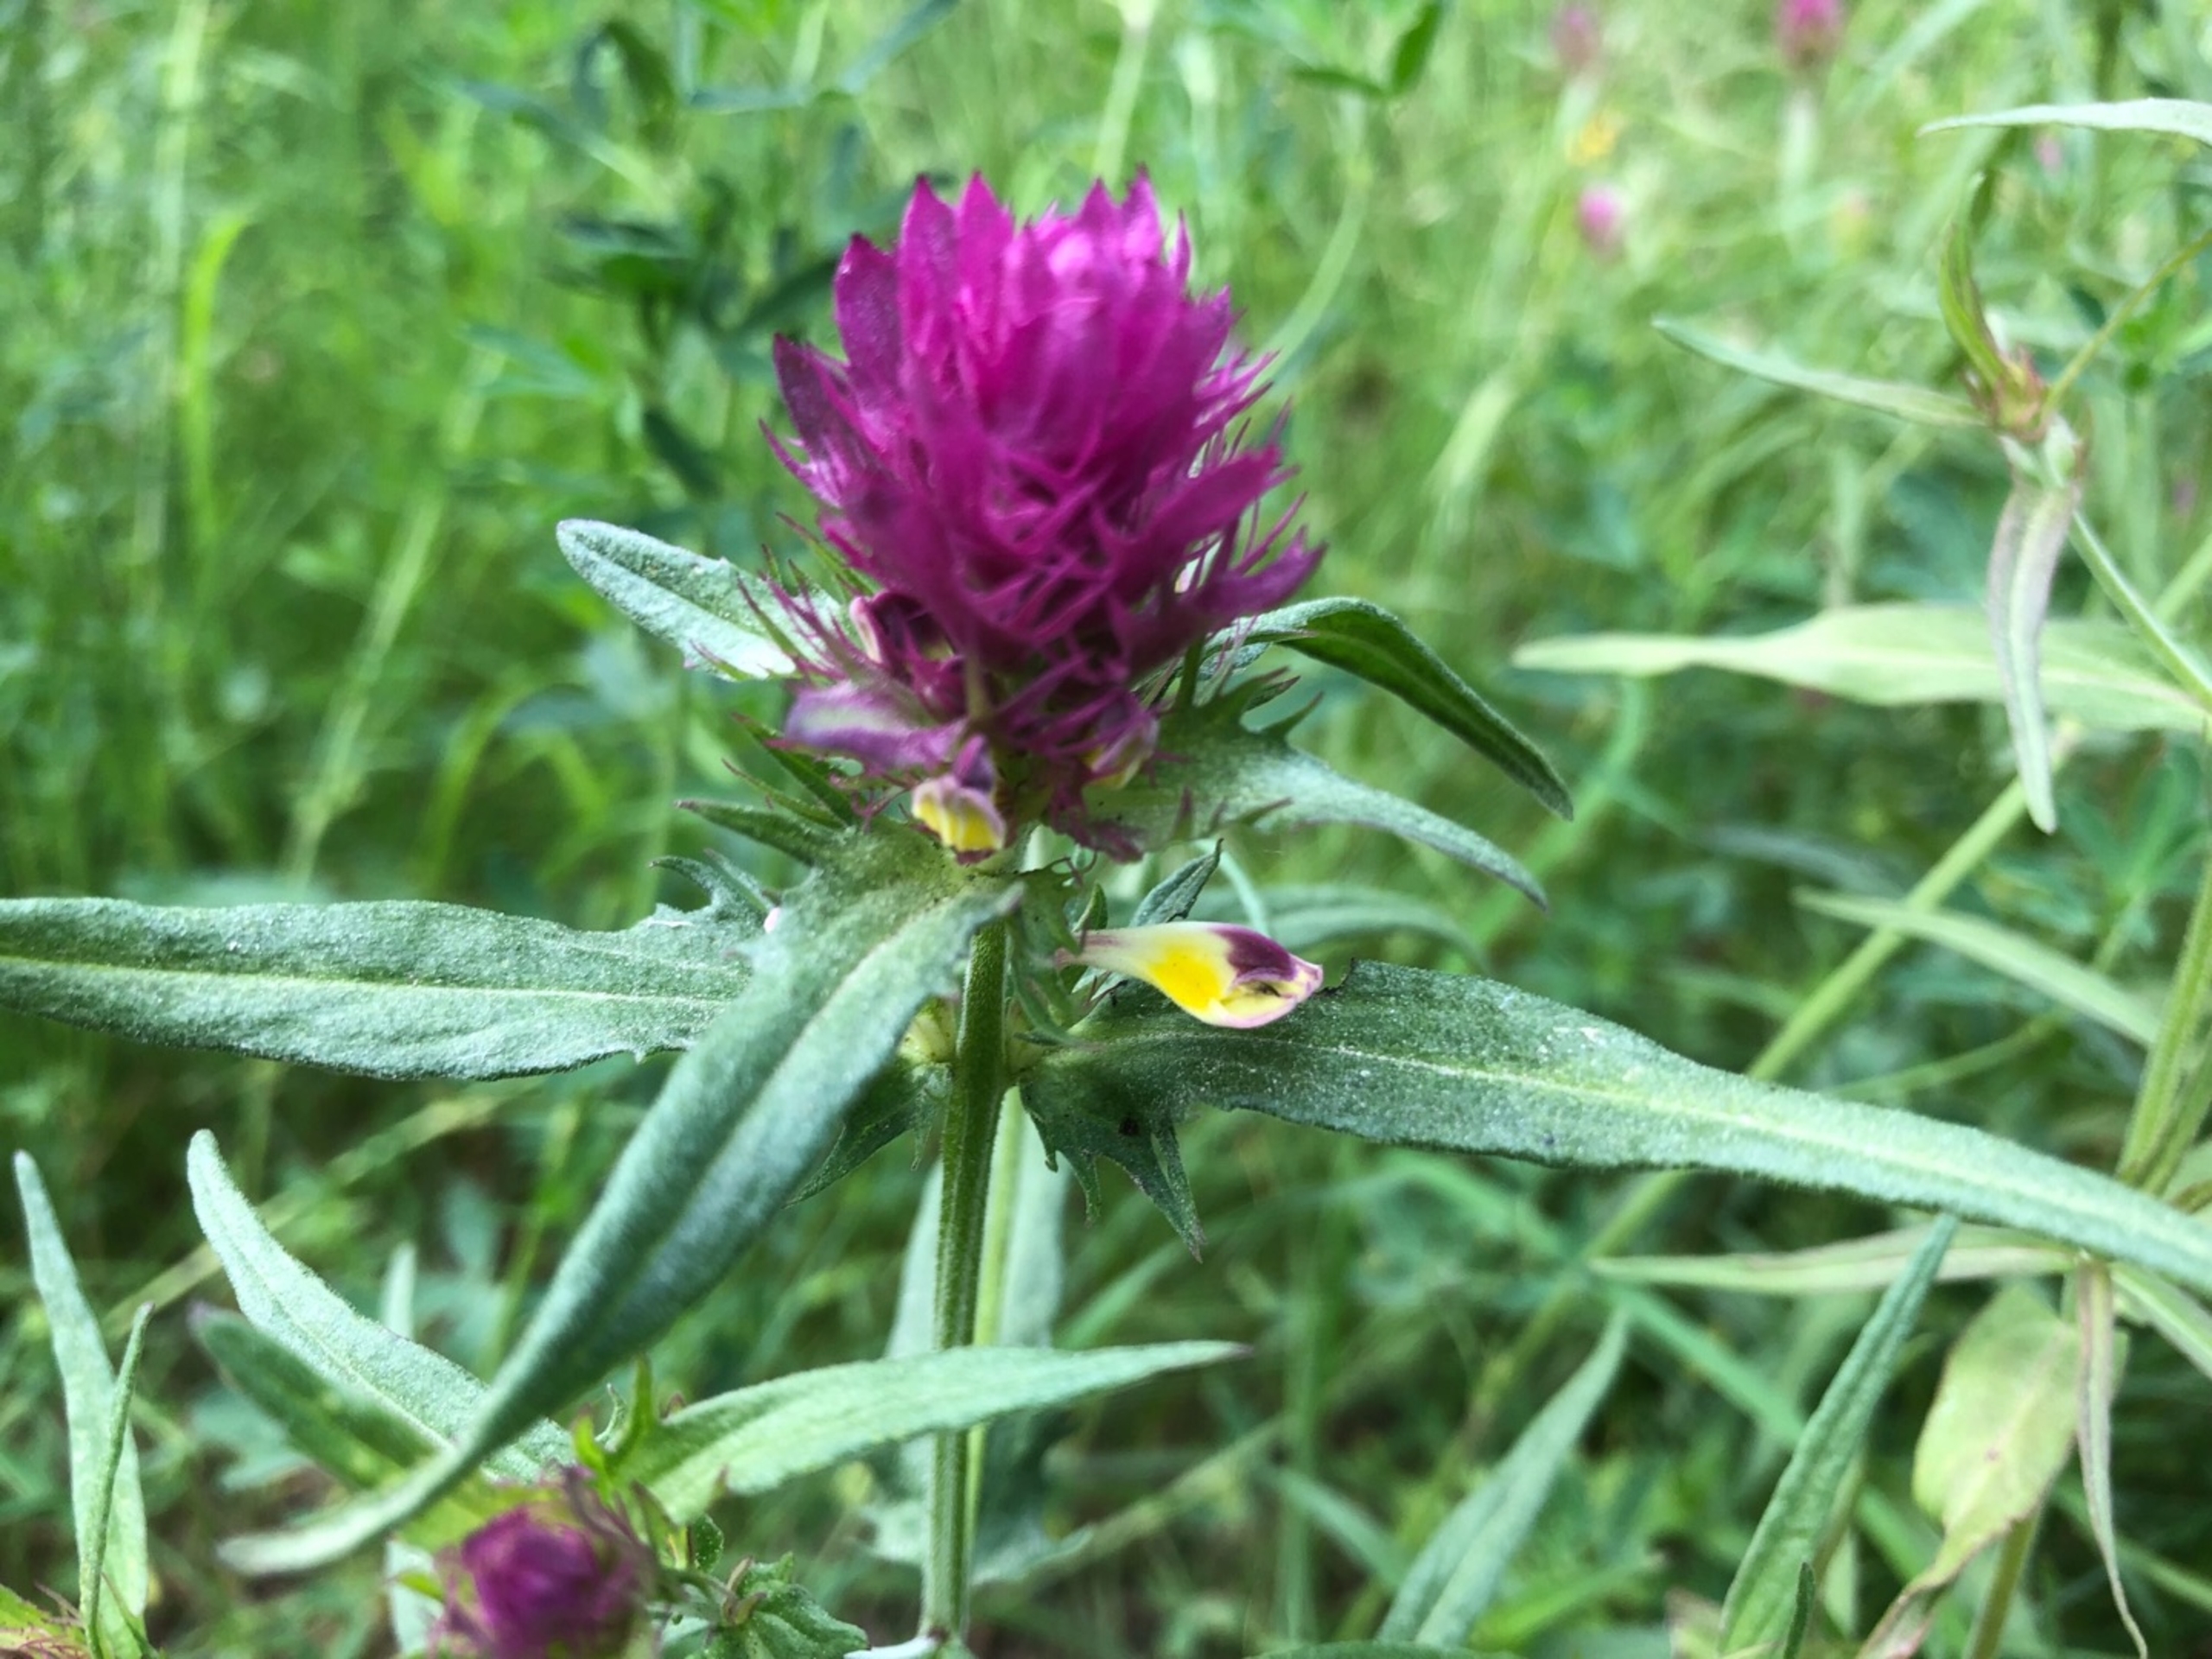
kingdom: Plantae
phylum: Tracheophyta
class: Magnoliopsida
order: Lamiales
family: Orobanchaceae
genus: Melampyrum
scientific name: Melampyrum arvense
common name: Ager-kohvede
